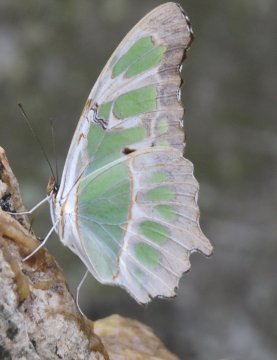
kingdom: Animalia
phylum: Arthropoda
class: Insecta
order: Lepidoptera
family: Nymphalidae
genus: Siproeta
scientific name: Siproeta stelenes
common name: Malachite
